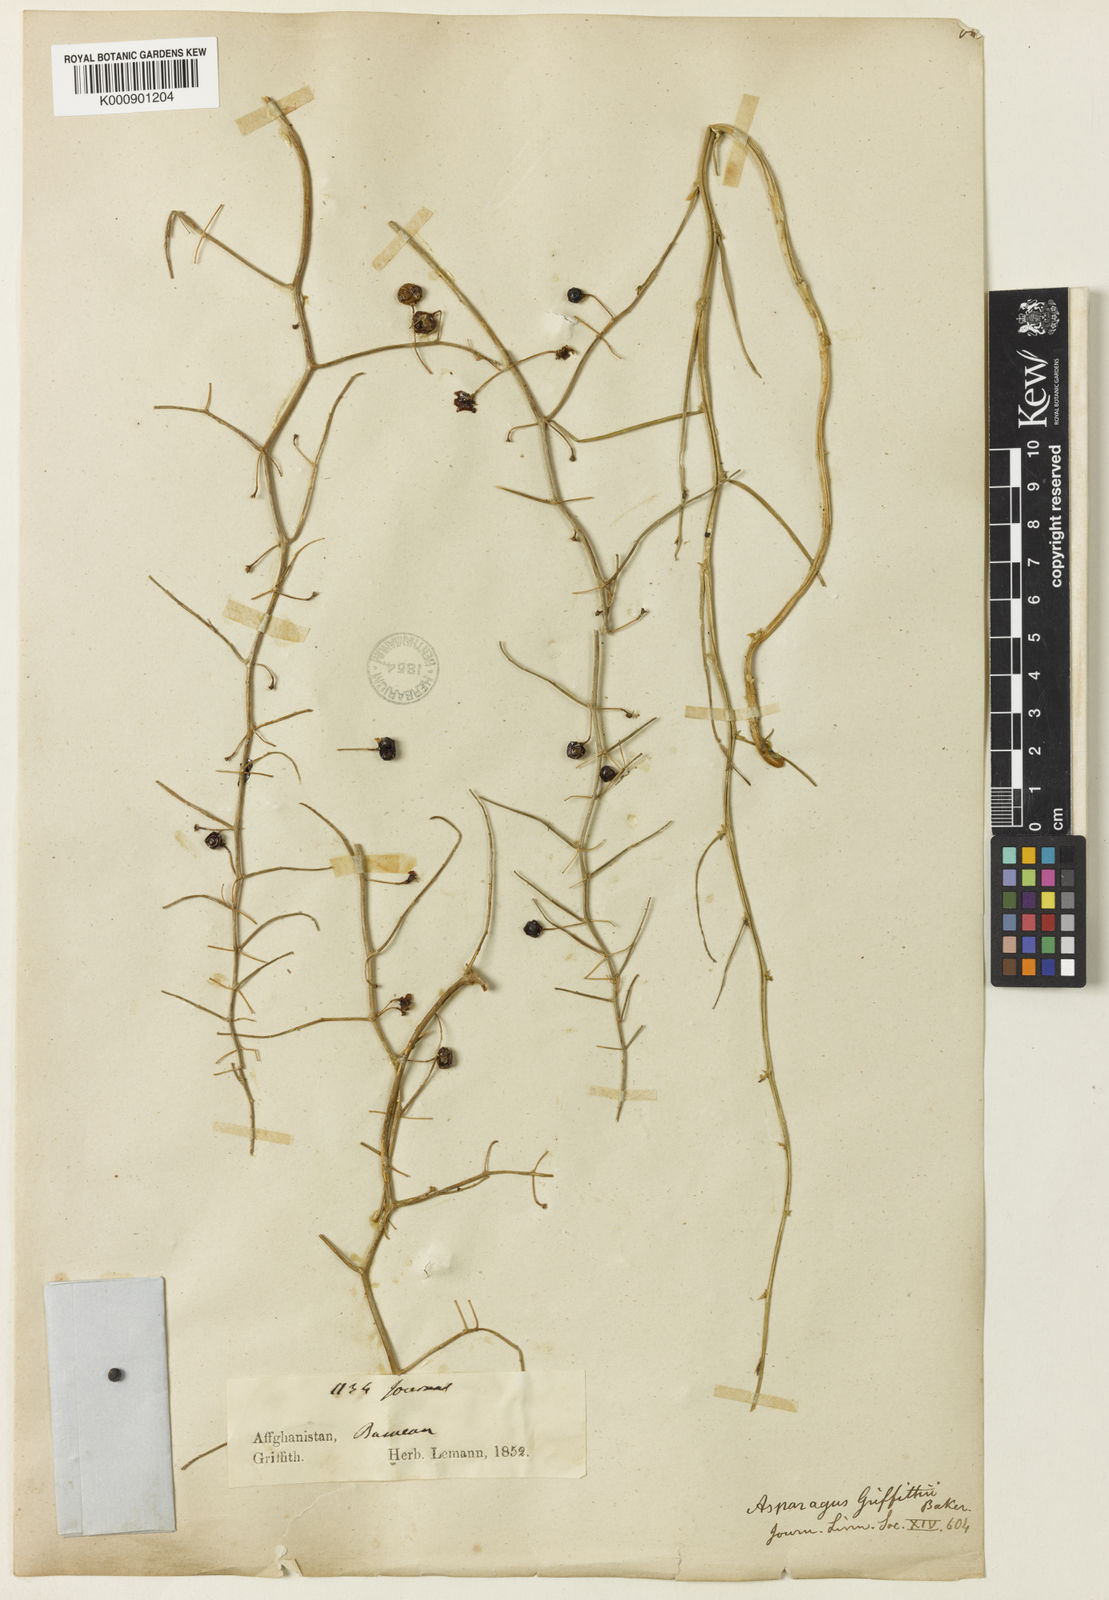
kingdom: Plantae
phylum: Tracheophyta
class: Liliopsida
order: Asparagales
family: Asparagaceae
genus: Asparagus
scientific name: Asparagus griffithii
